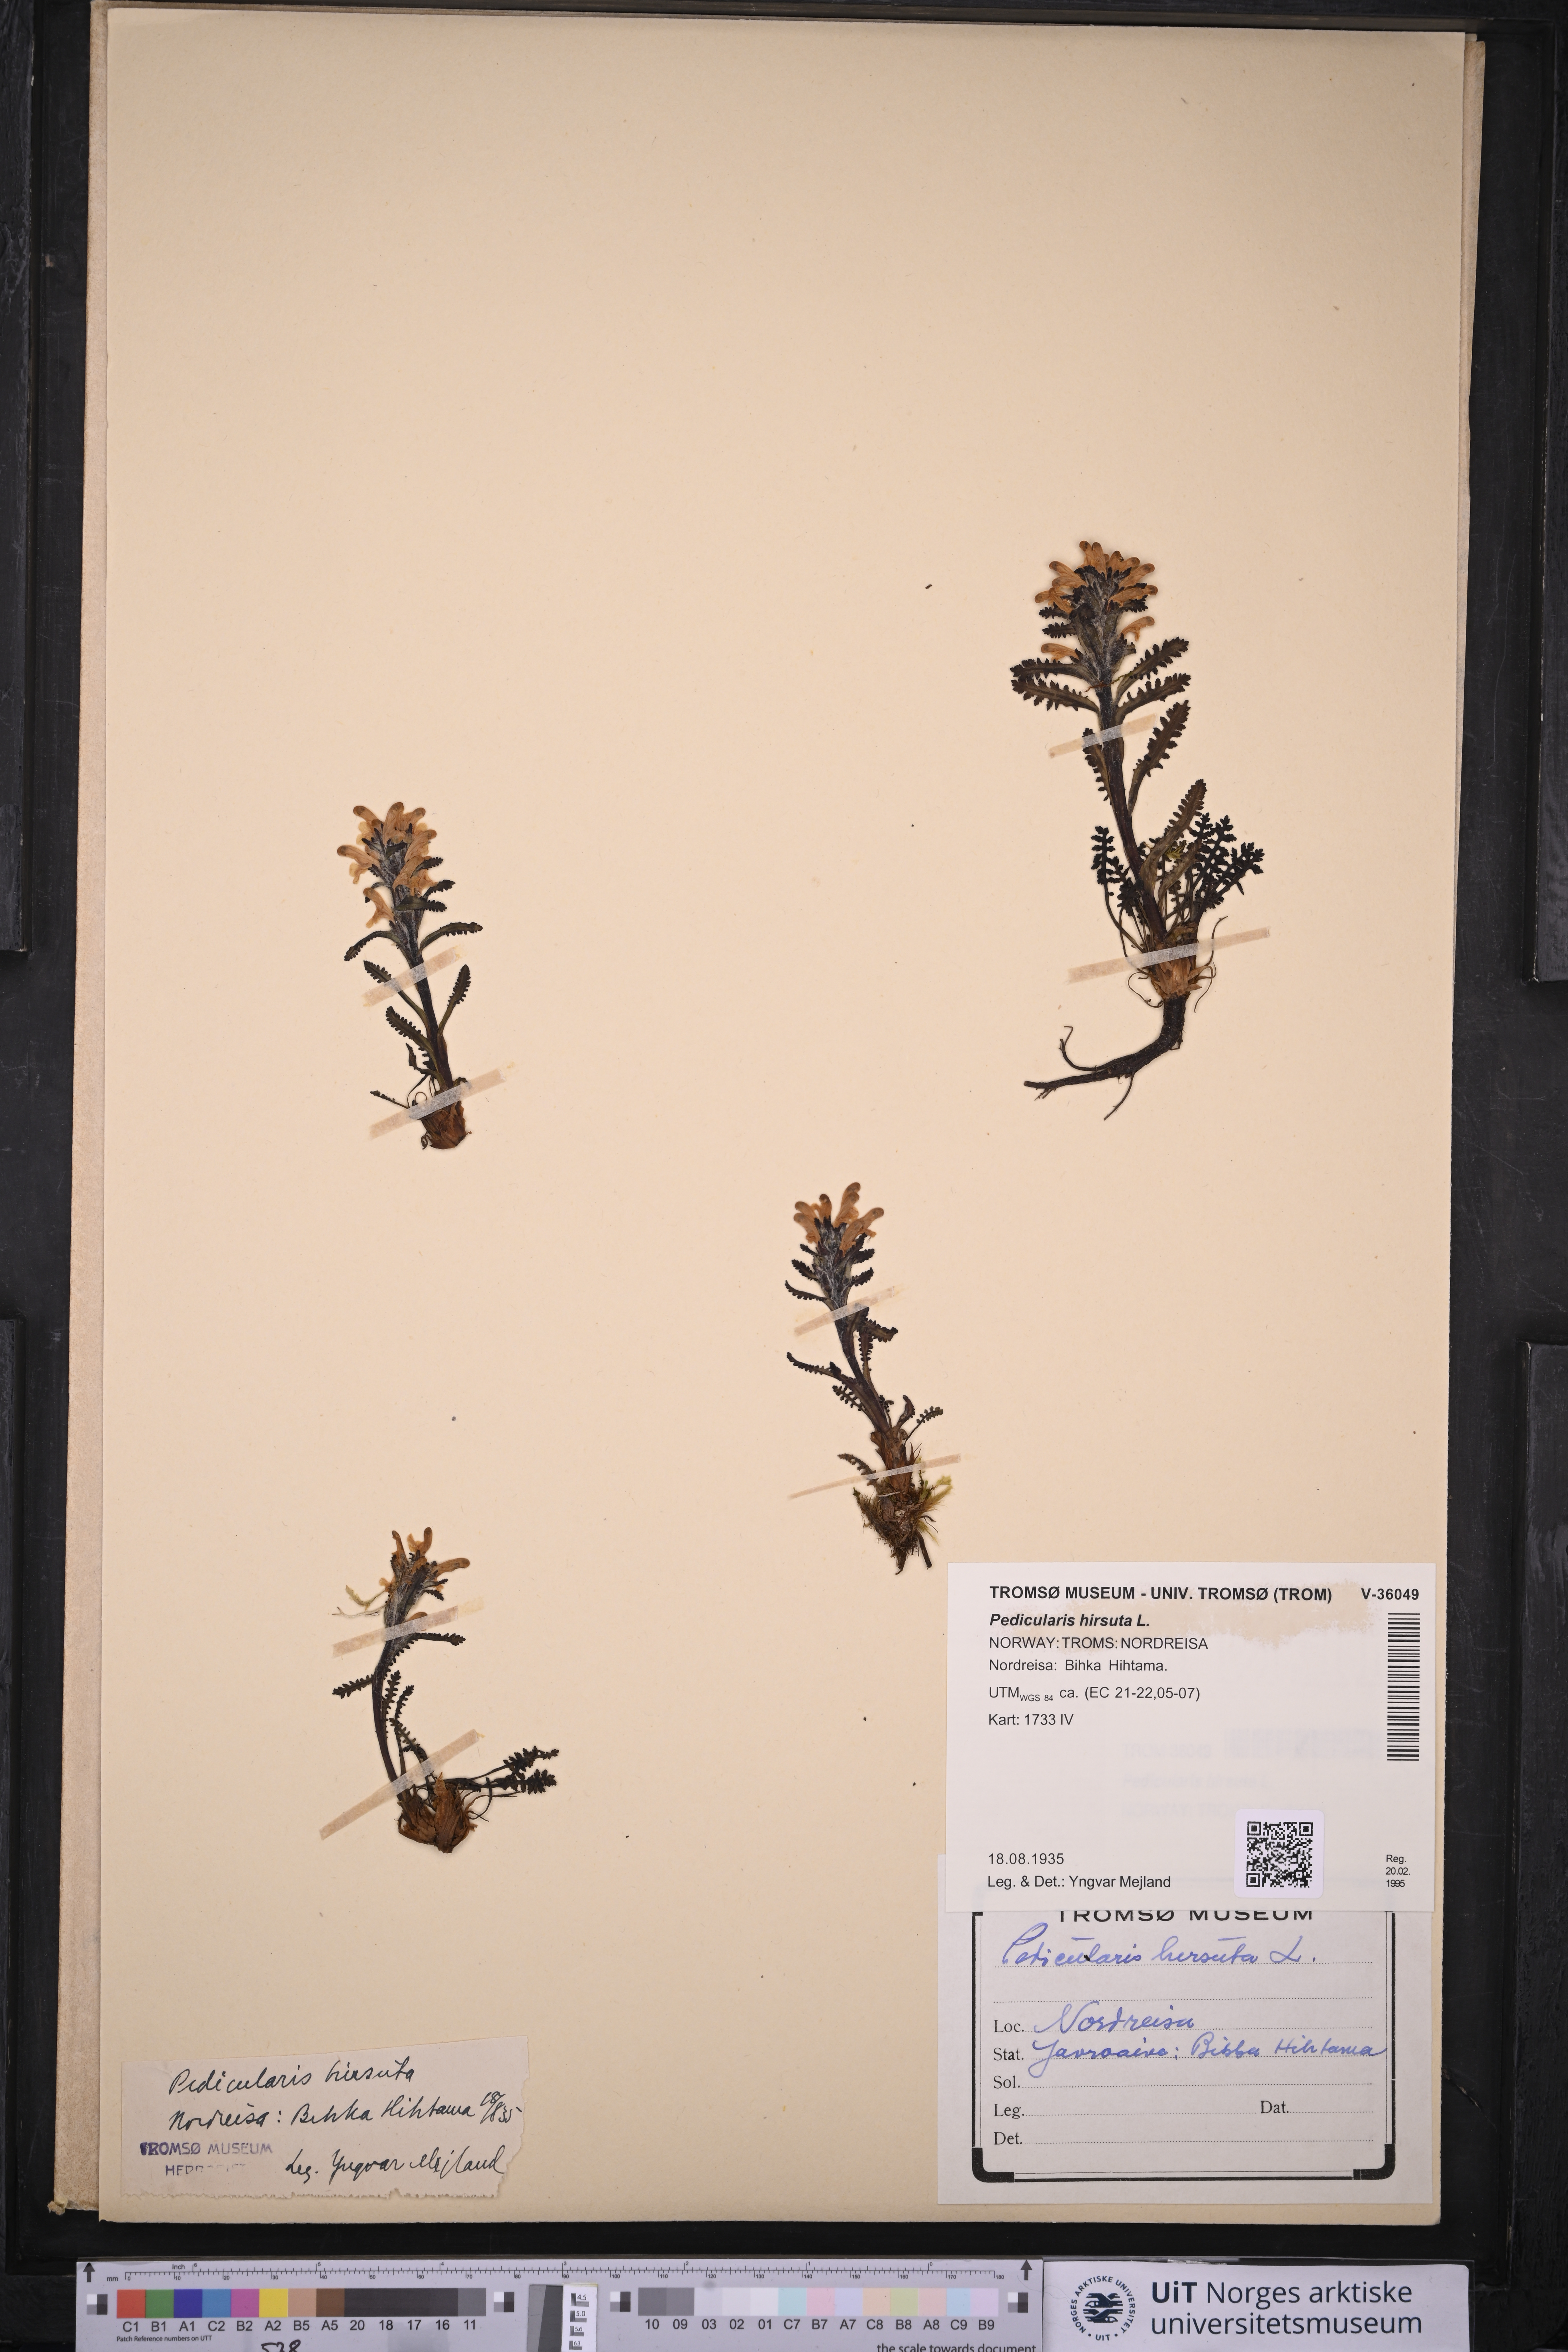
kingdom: Plantae
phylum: Tracheophyta
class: Magnoliopsida
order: Lamiales
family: Orobanchaceae
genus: Pedicularis
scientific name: Pedicularis hirsuta
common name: Hairy lousewort
